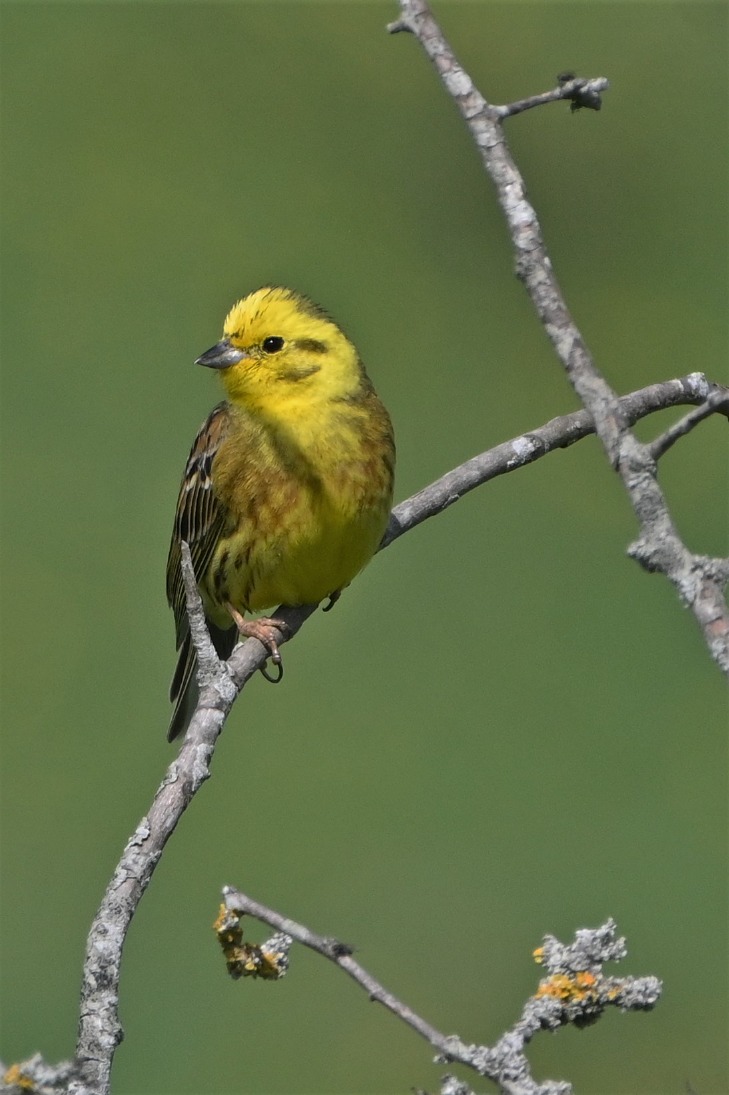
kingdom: Animalia
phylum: Chordata
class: Aves
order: Passeriformes
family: Emberizidae
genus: Emberiza
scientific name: Emberiza citrinella
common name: Gulspurv
